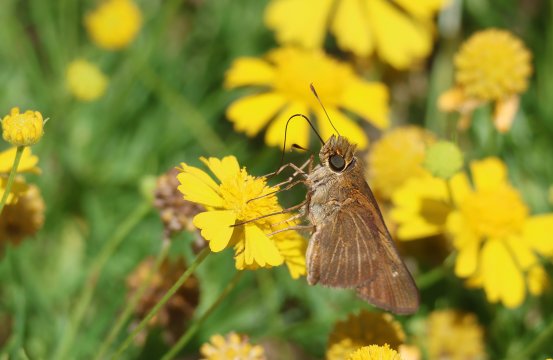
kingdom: Animalia
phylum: Arthropoda
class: Insecta
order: Lepidoptera
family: Hesperiidae
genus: Panoquina
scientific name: Panoquina ocola
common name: Ocola Skipper
